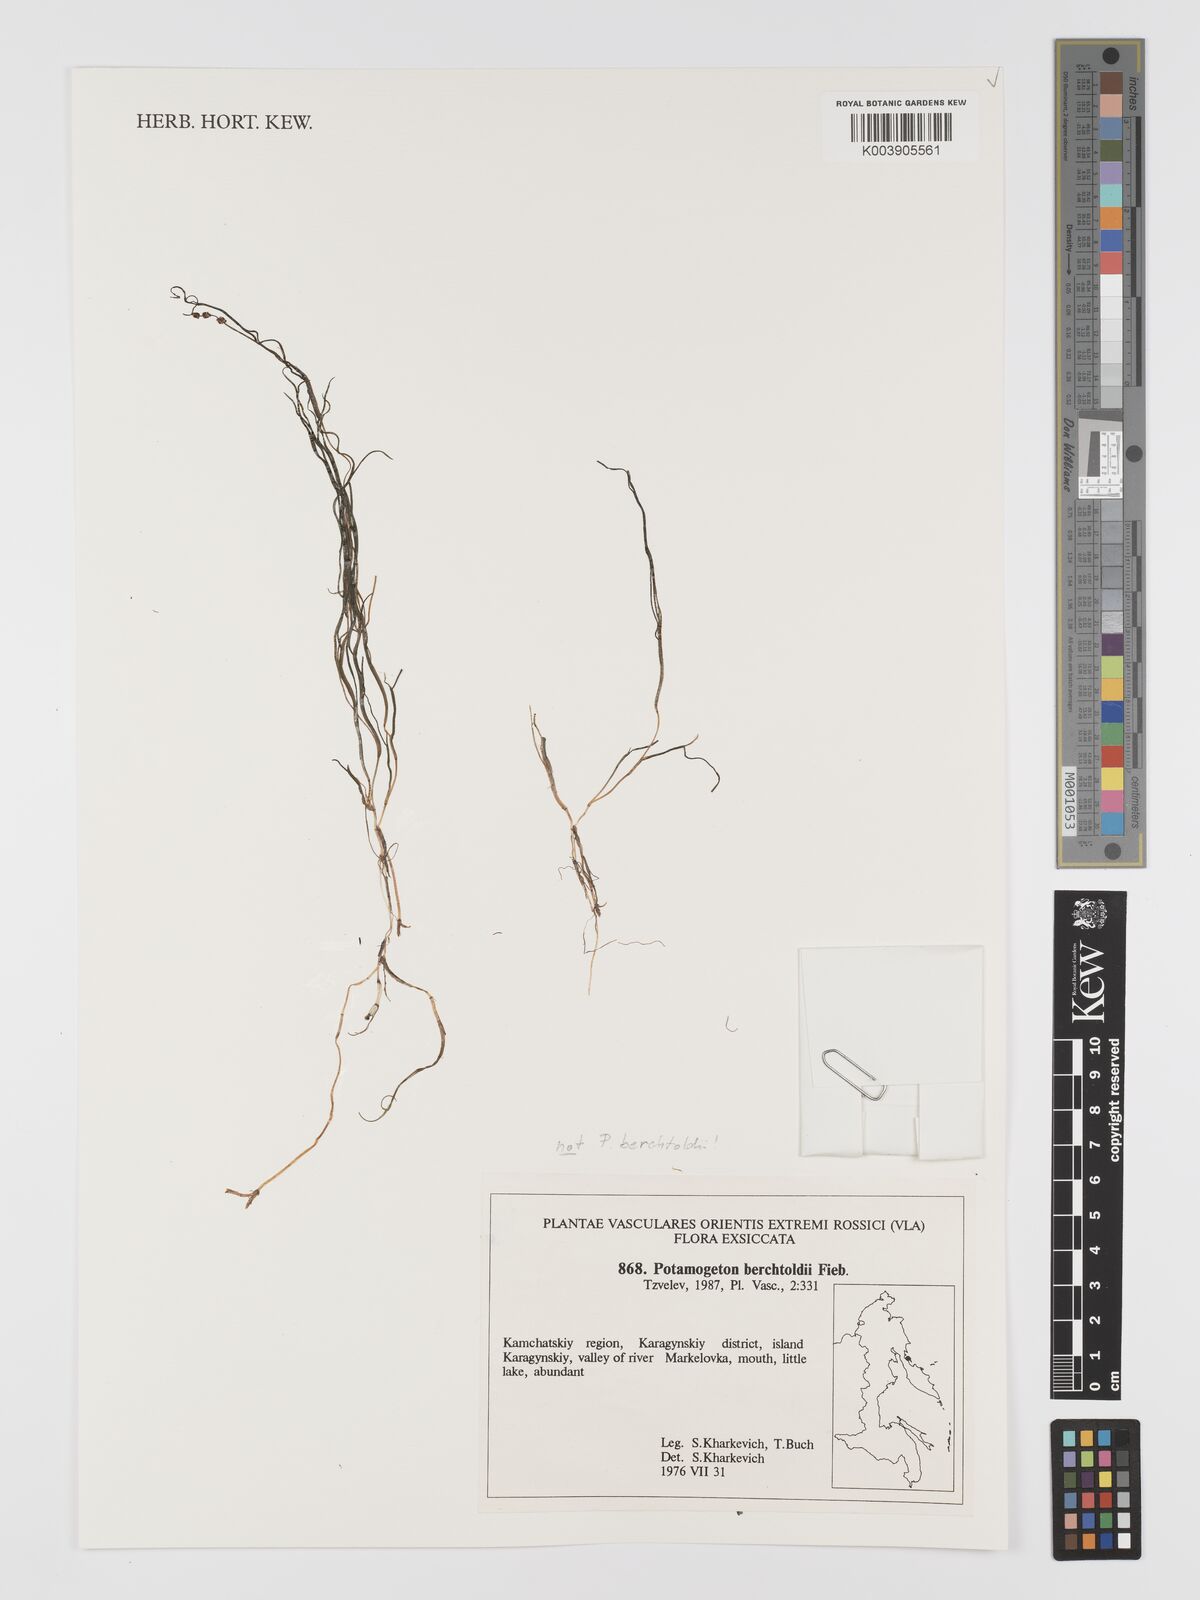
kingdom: Plantae
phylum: Tracheophyta
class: Liliopsida
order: Alismatales
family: Potamogetonaceae
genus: Potamogeton
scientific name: Potamogeton berchtoldii
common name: Small pondweed
